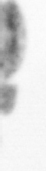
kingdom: Animalia
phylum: Arthropoda
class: Copepoda
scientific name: Copepoda
